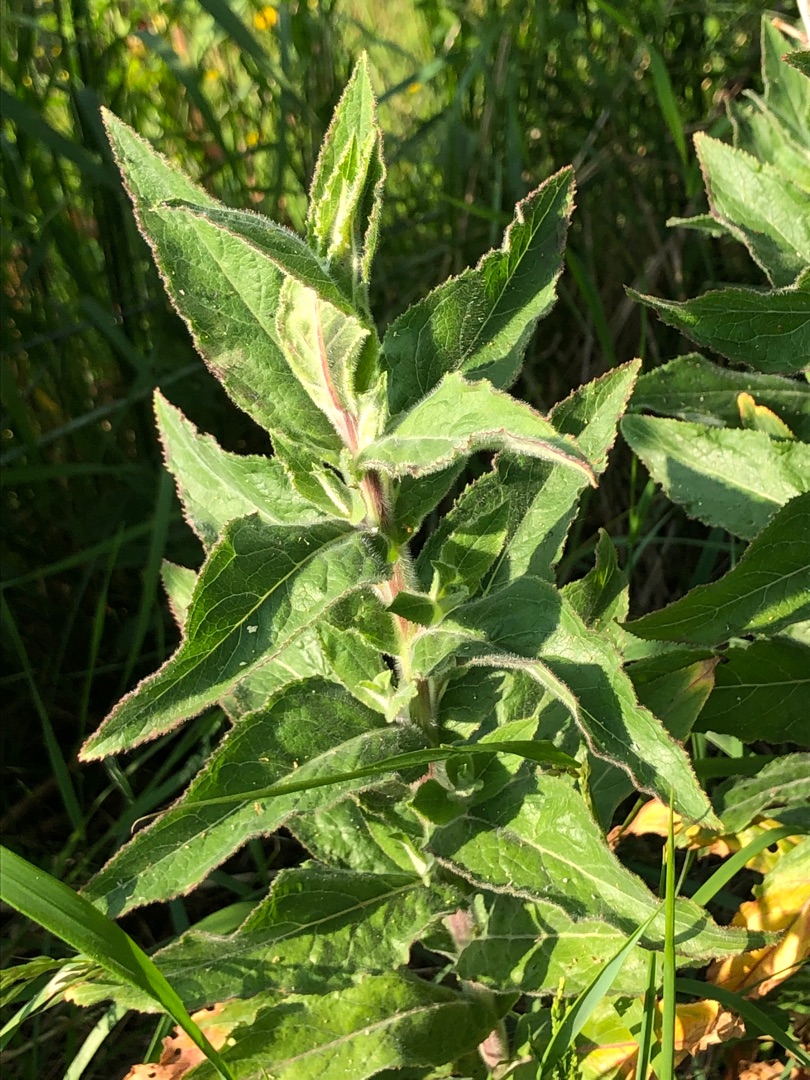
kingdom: Plantae
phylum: Tracheophyta
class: Magnoliopsida
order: Myrtales
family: Onagraceae
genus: Epilobium
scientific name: Epilobium hirsutum
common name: Lådden dueurt
